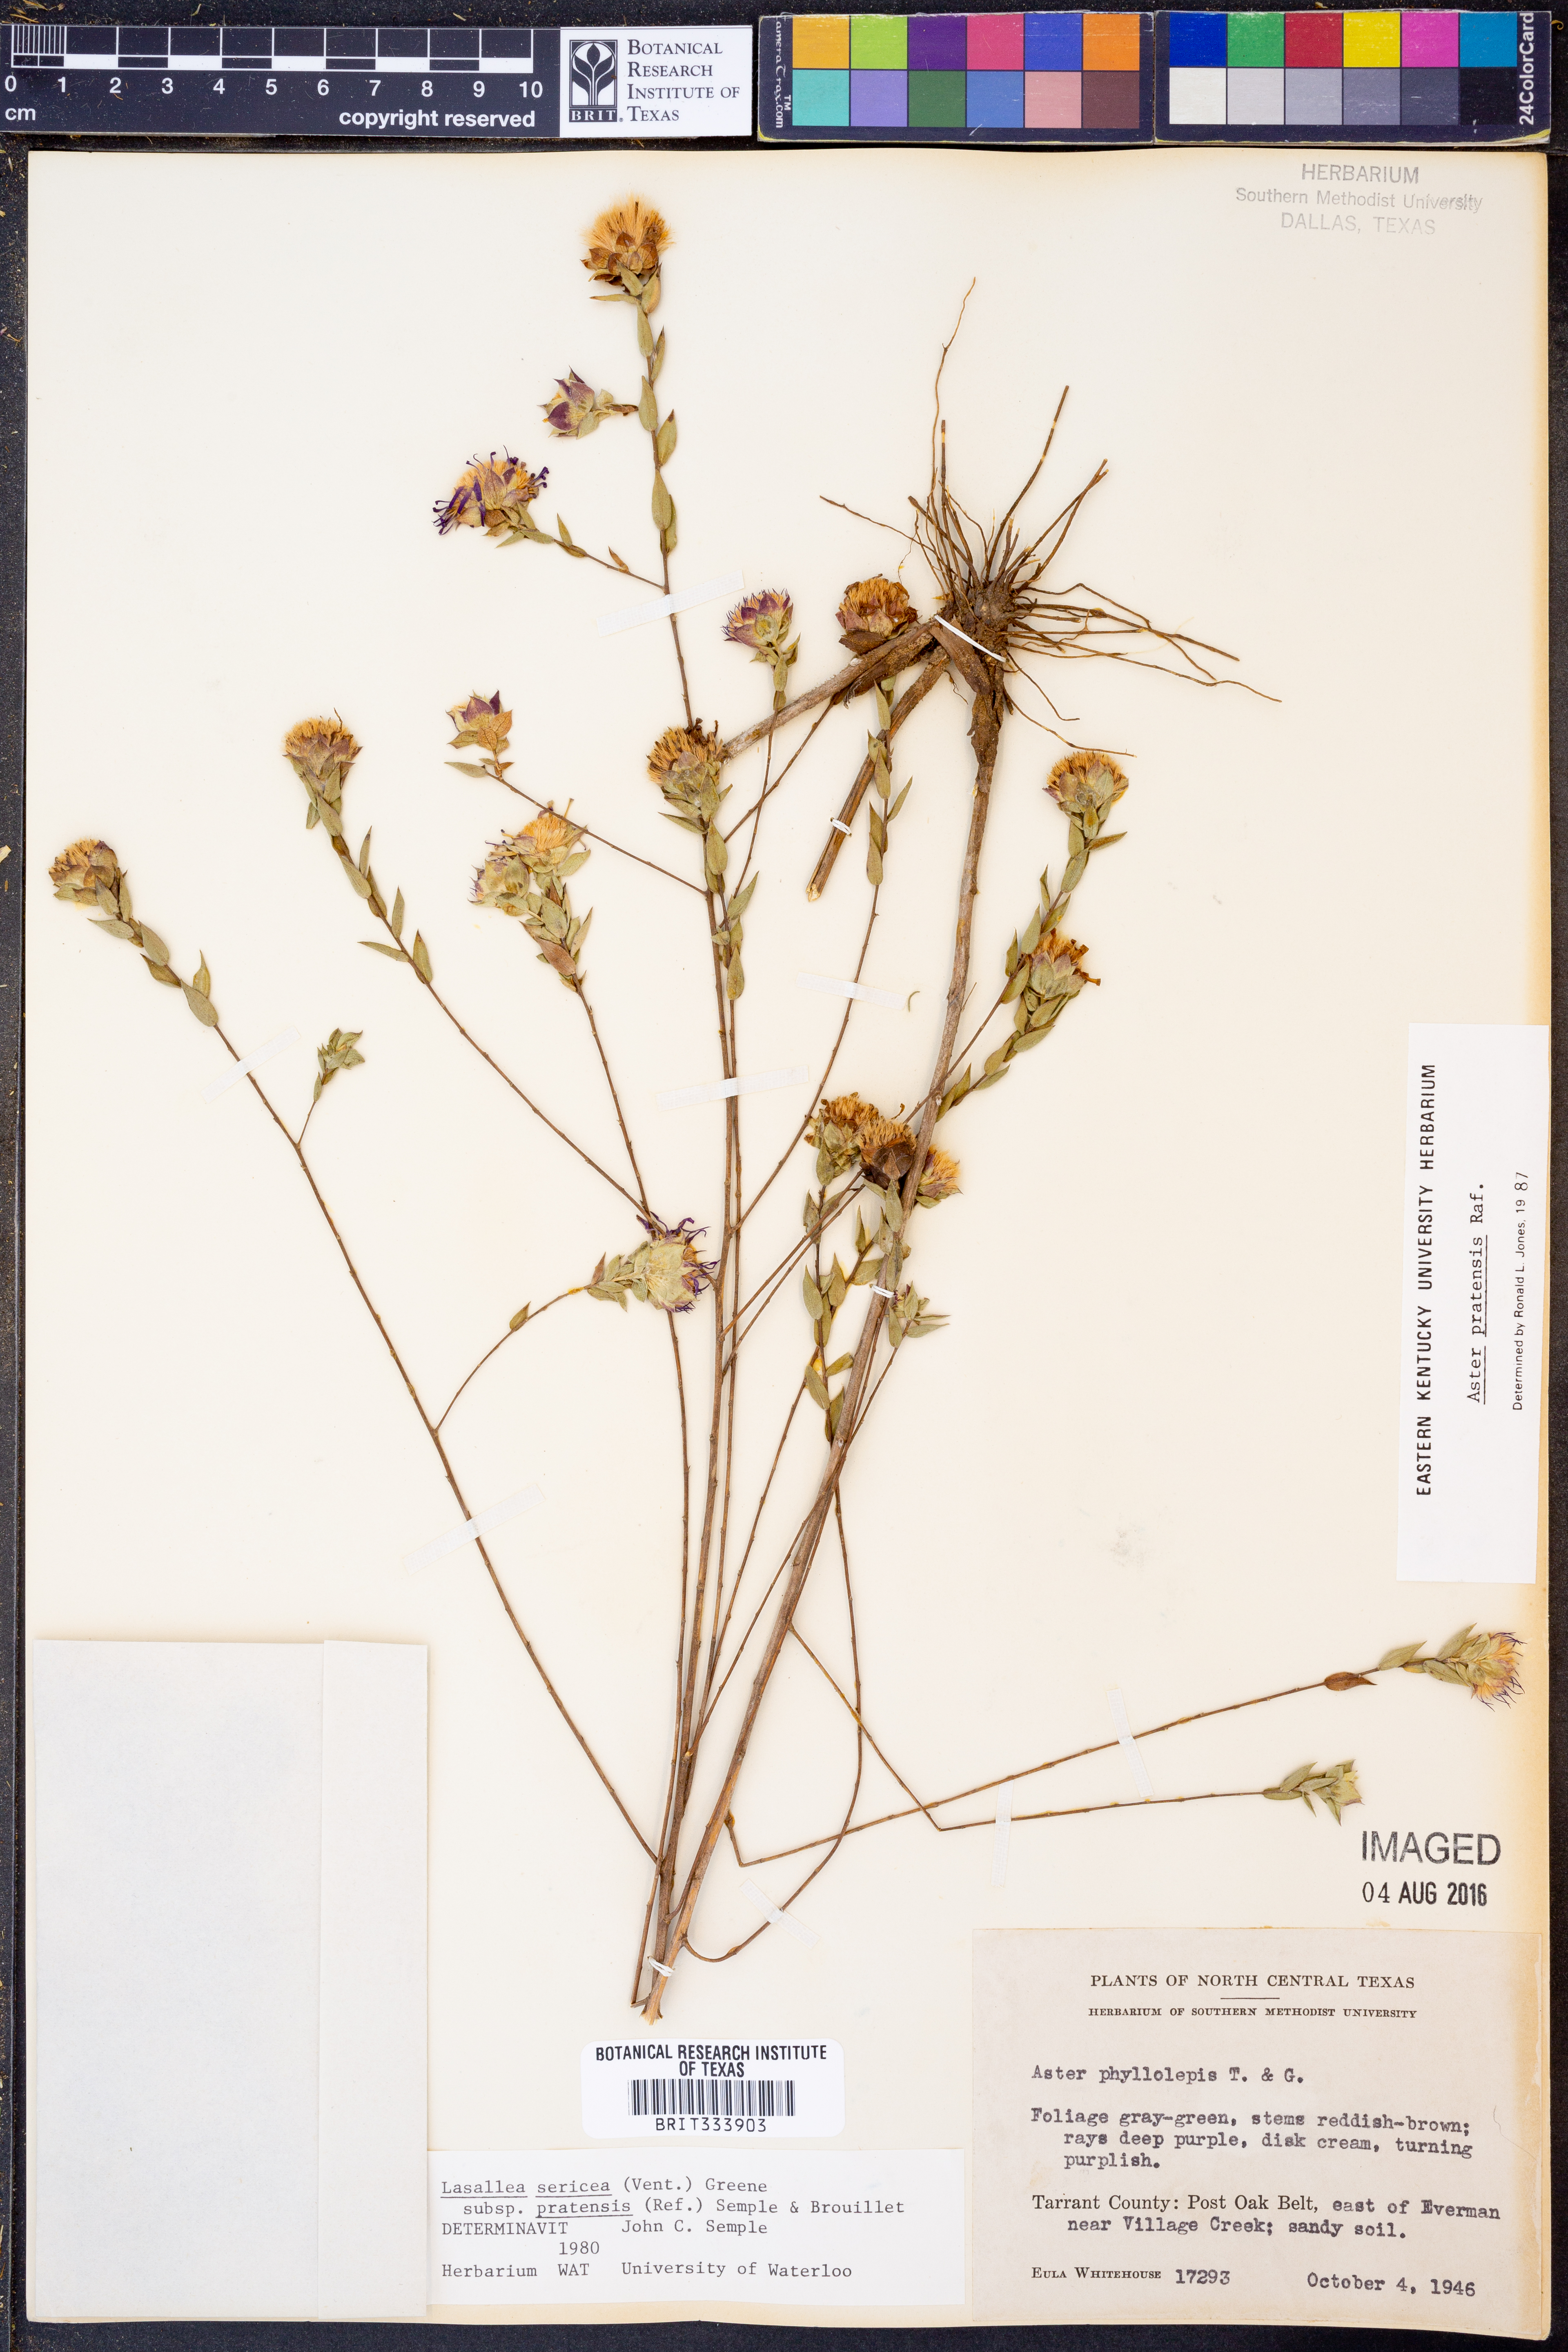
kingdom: Plantae
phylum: Tracheophyta
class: Magnoliopsida
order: Asterales
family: Asteraceae
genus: Symphyotrichum
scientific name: Symphyotrichum pratense
